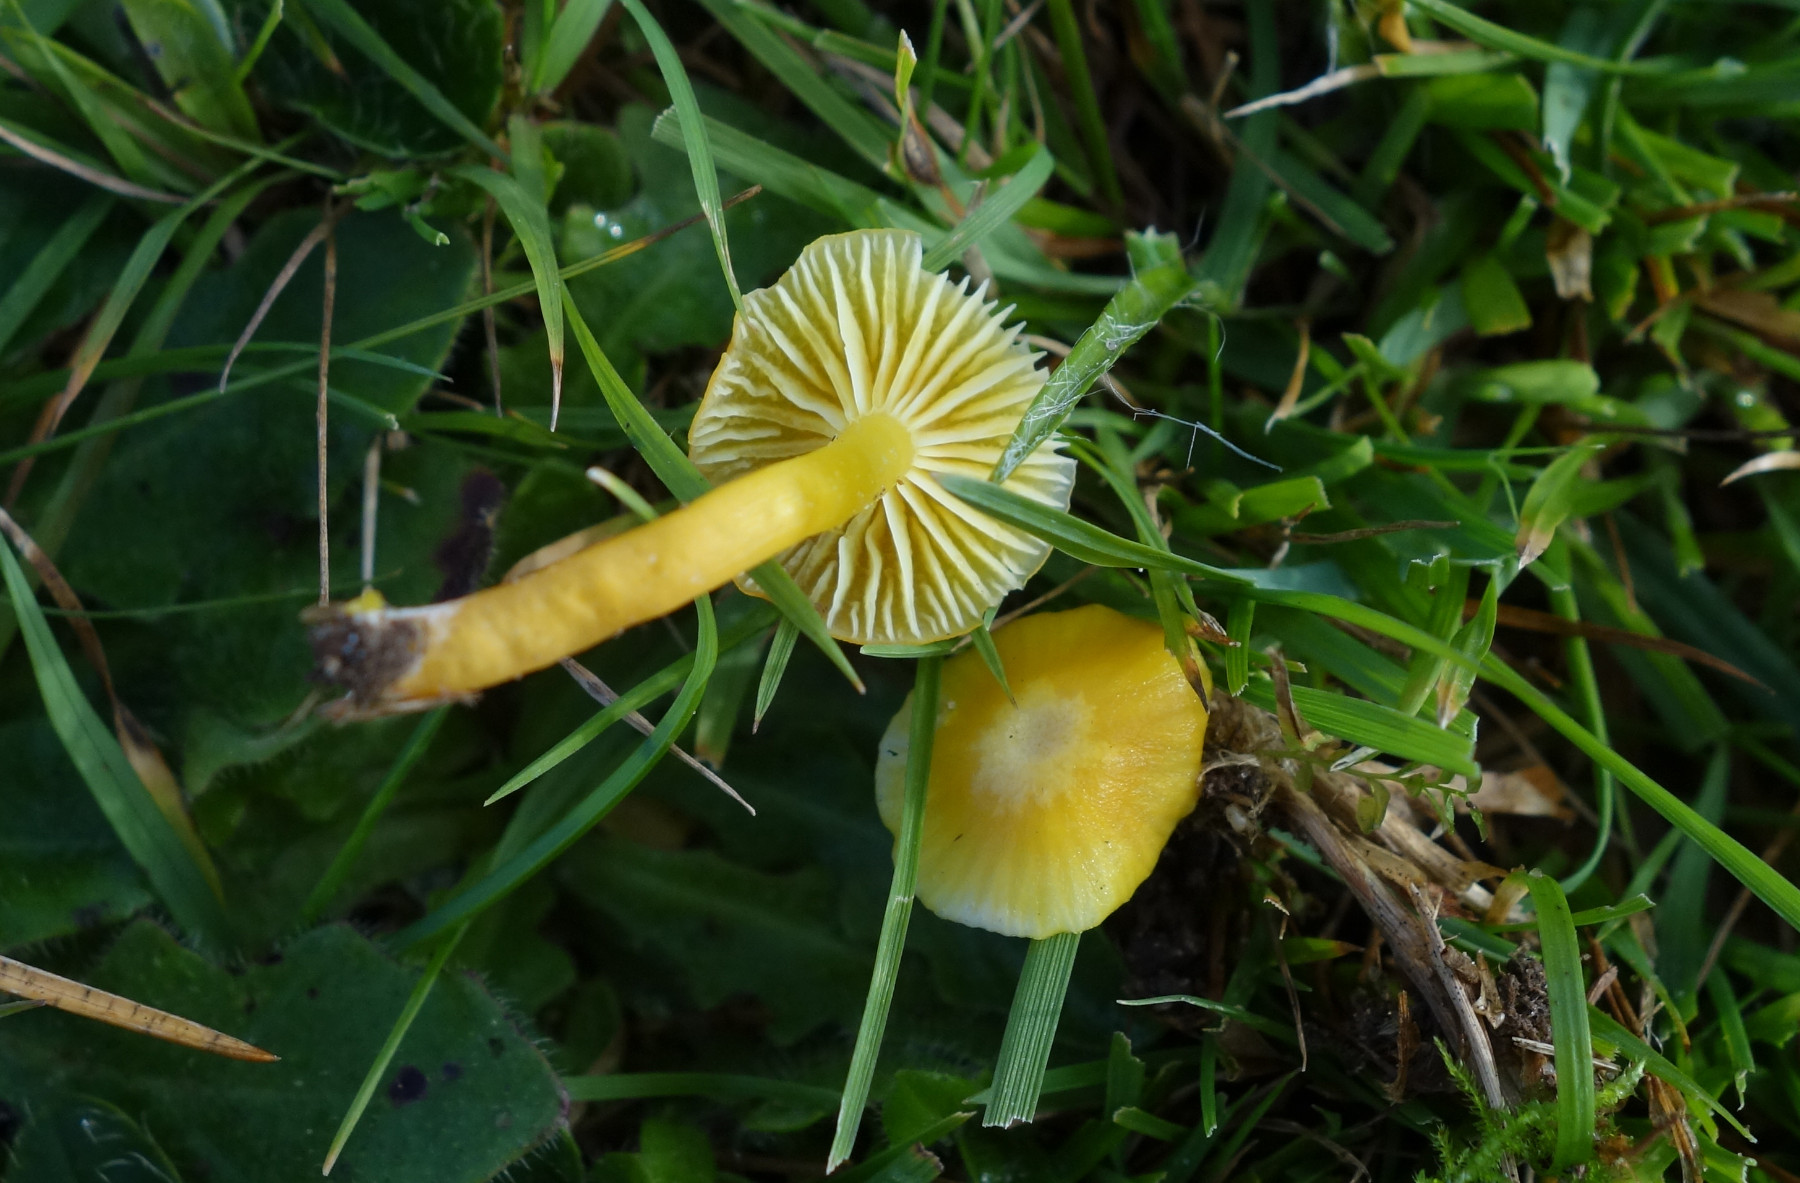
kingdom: Fungi
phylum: Basidiomycota
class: Agaricomycetes
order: Agaricales
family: Hygrophoraceae
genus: Hygrocybe
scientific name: Hygrocybe ceracea
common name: voksgul vokshat
